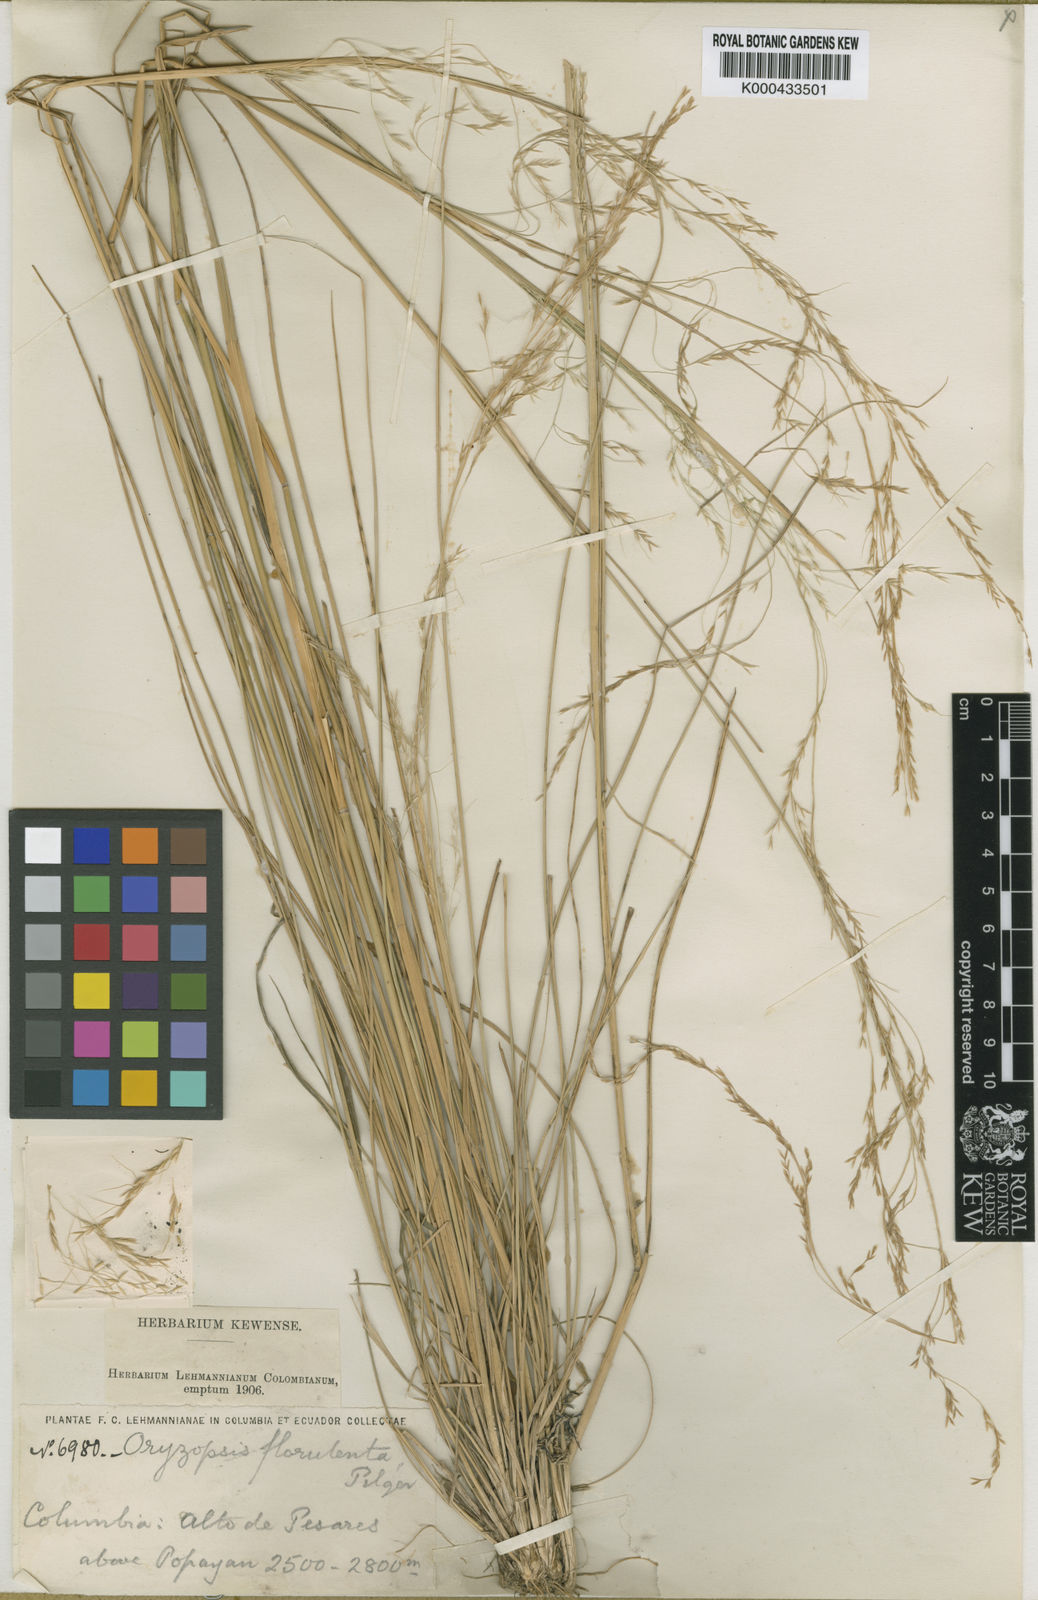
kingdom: Plantae
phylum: Tracheophyta
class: Liliopsida
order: Poales
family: Poaceae
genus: Nassella
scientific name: Nassella caespitosa
